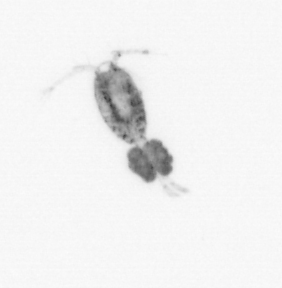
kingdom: Animalia
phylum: Arthropoda
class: Copepoda
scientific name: Copepoda
